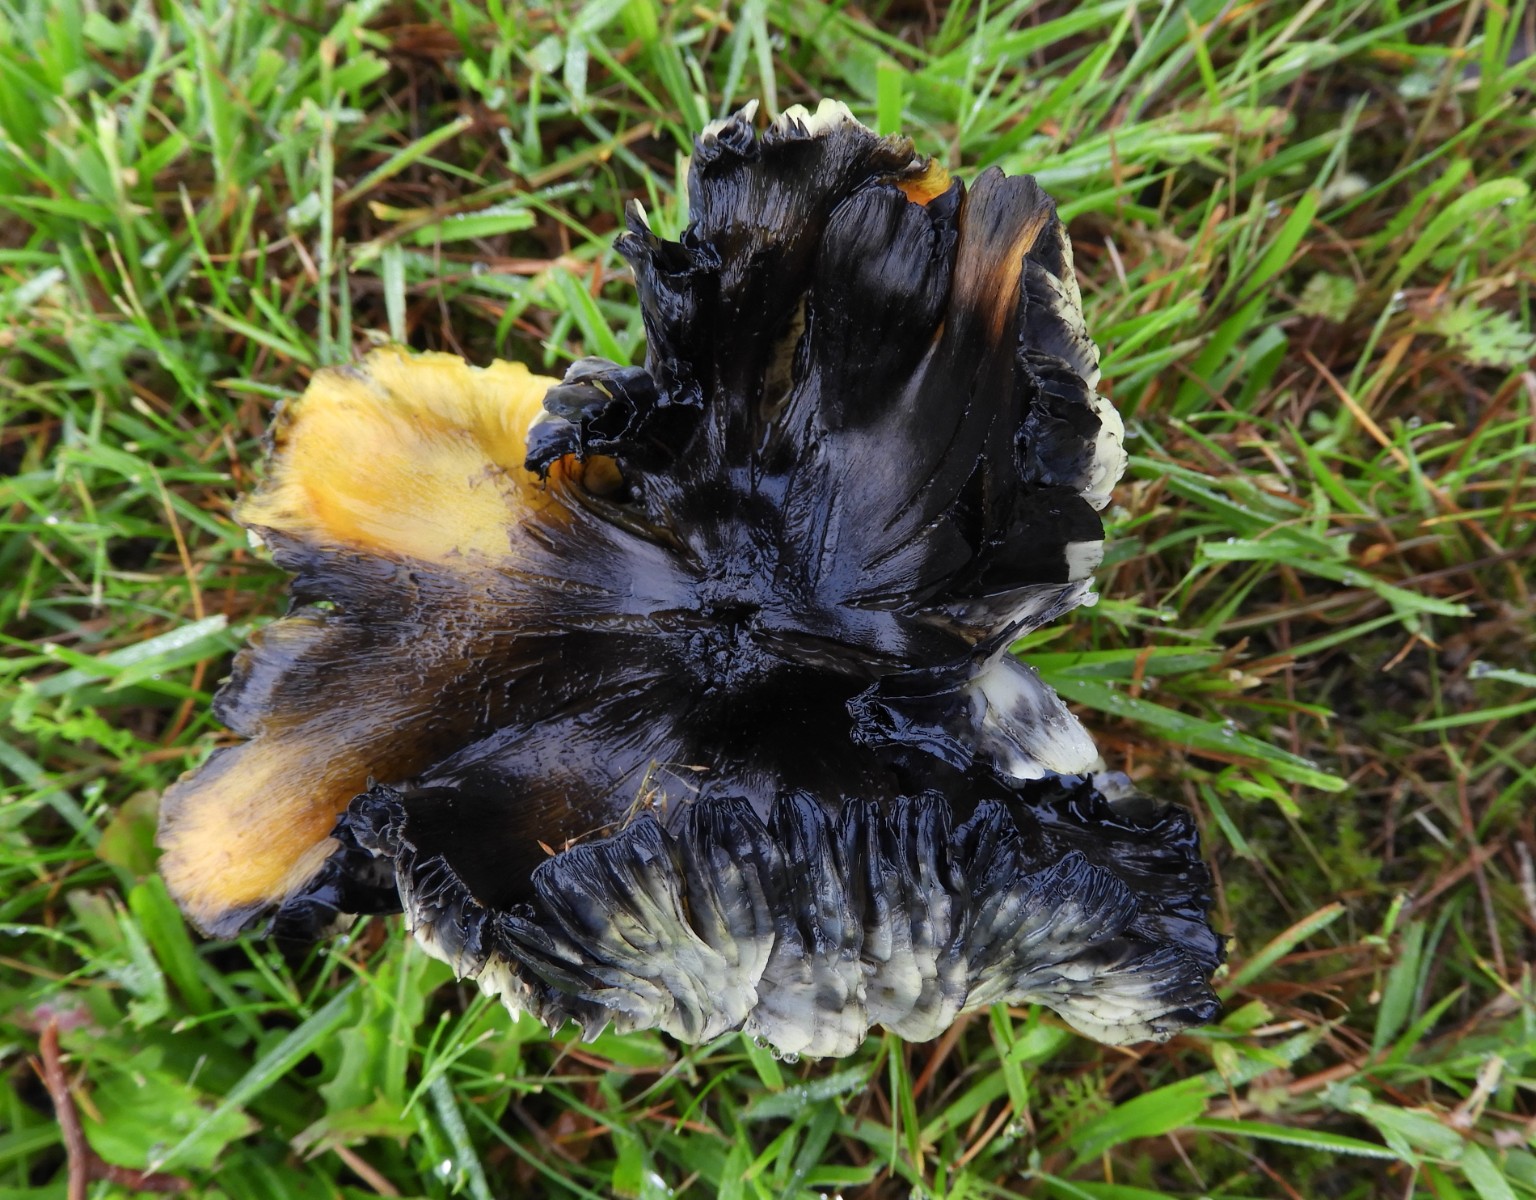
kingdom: Fungi
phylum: Basidiomycota
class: Agaricomycetes
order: Agaricales
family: Hygrophoraceae
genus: Hygrocybe
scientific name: Hygrocybe conica
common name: kegle-vokshat
